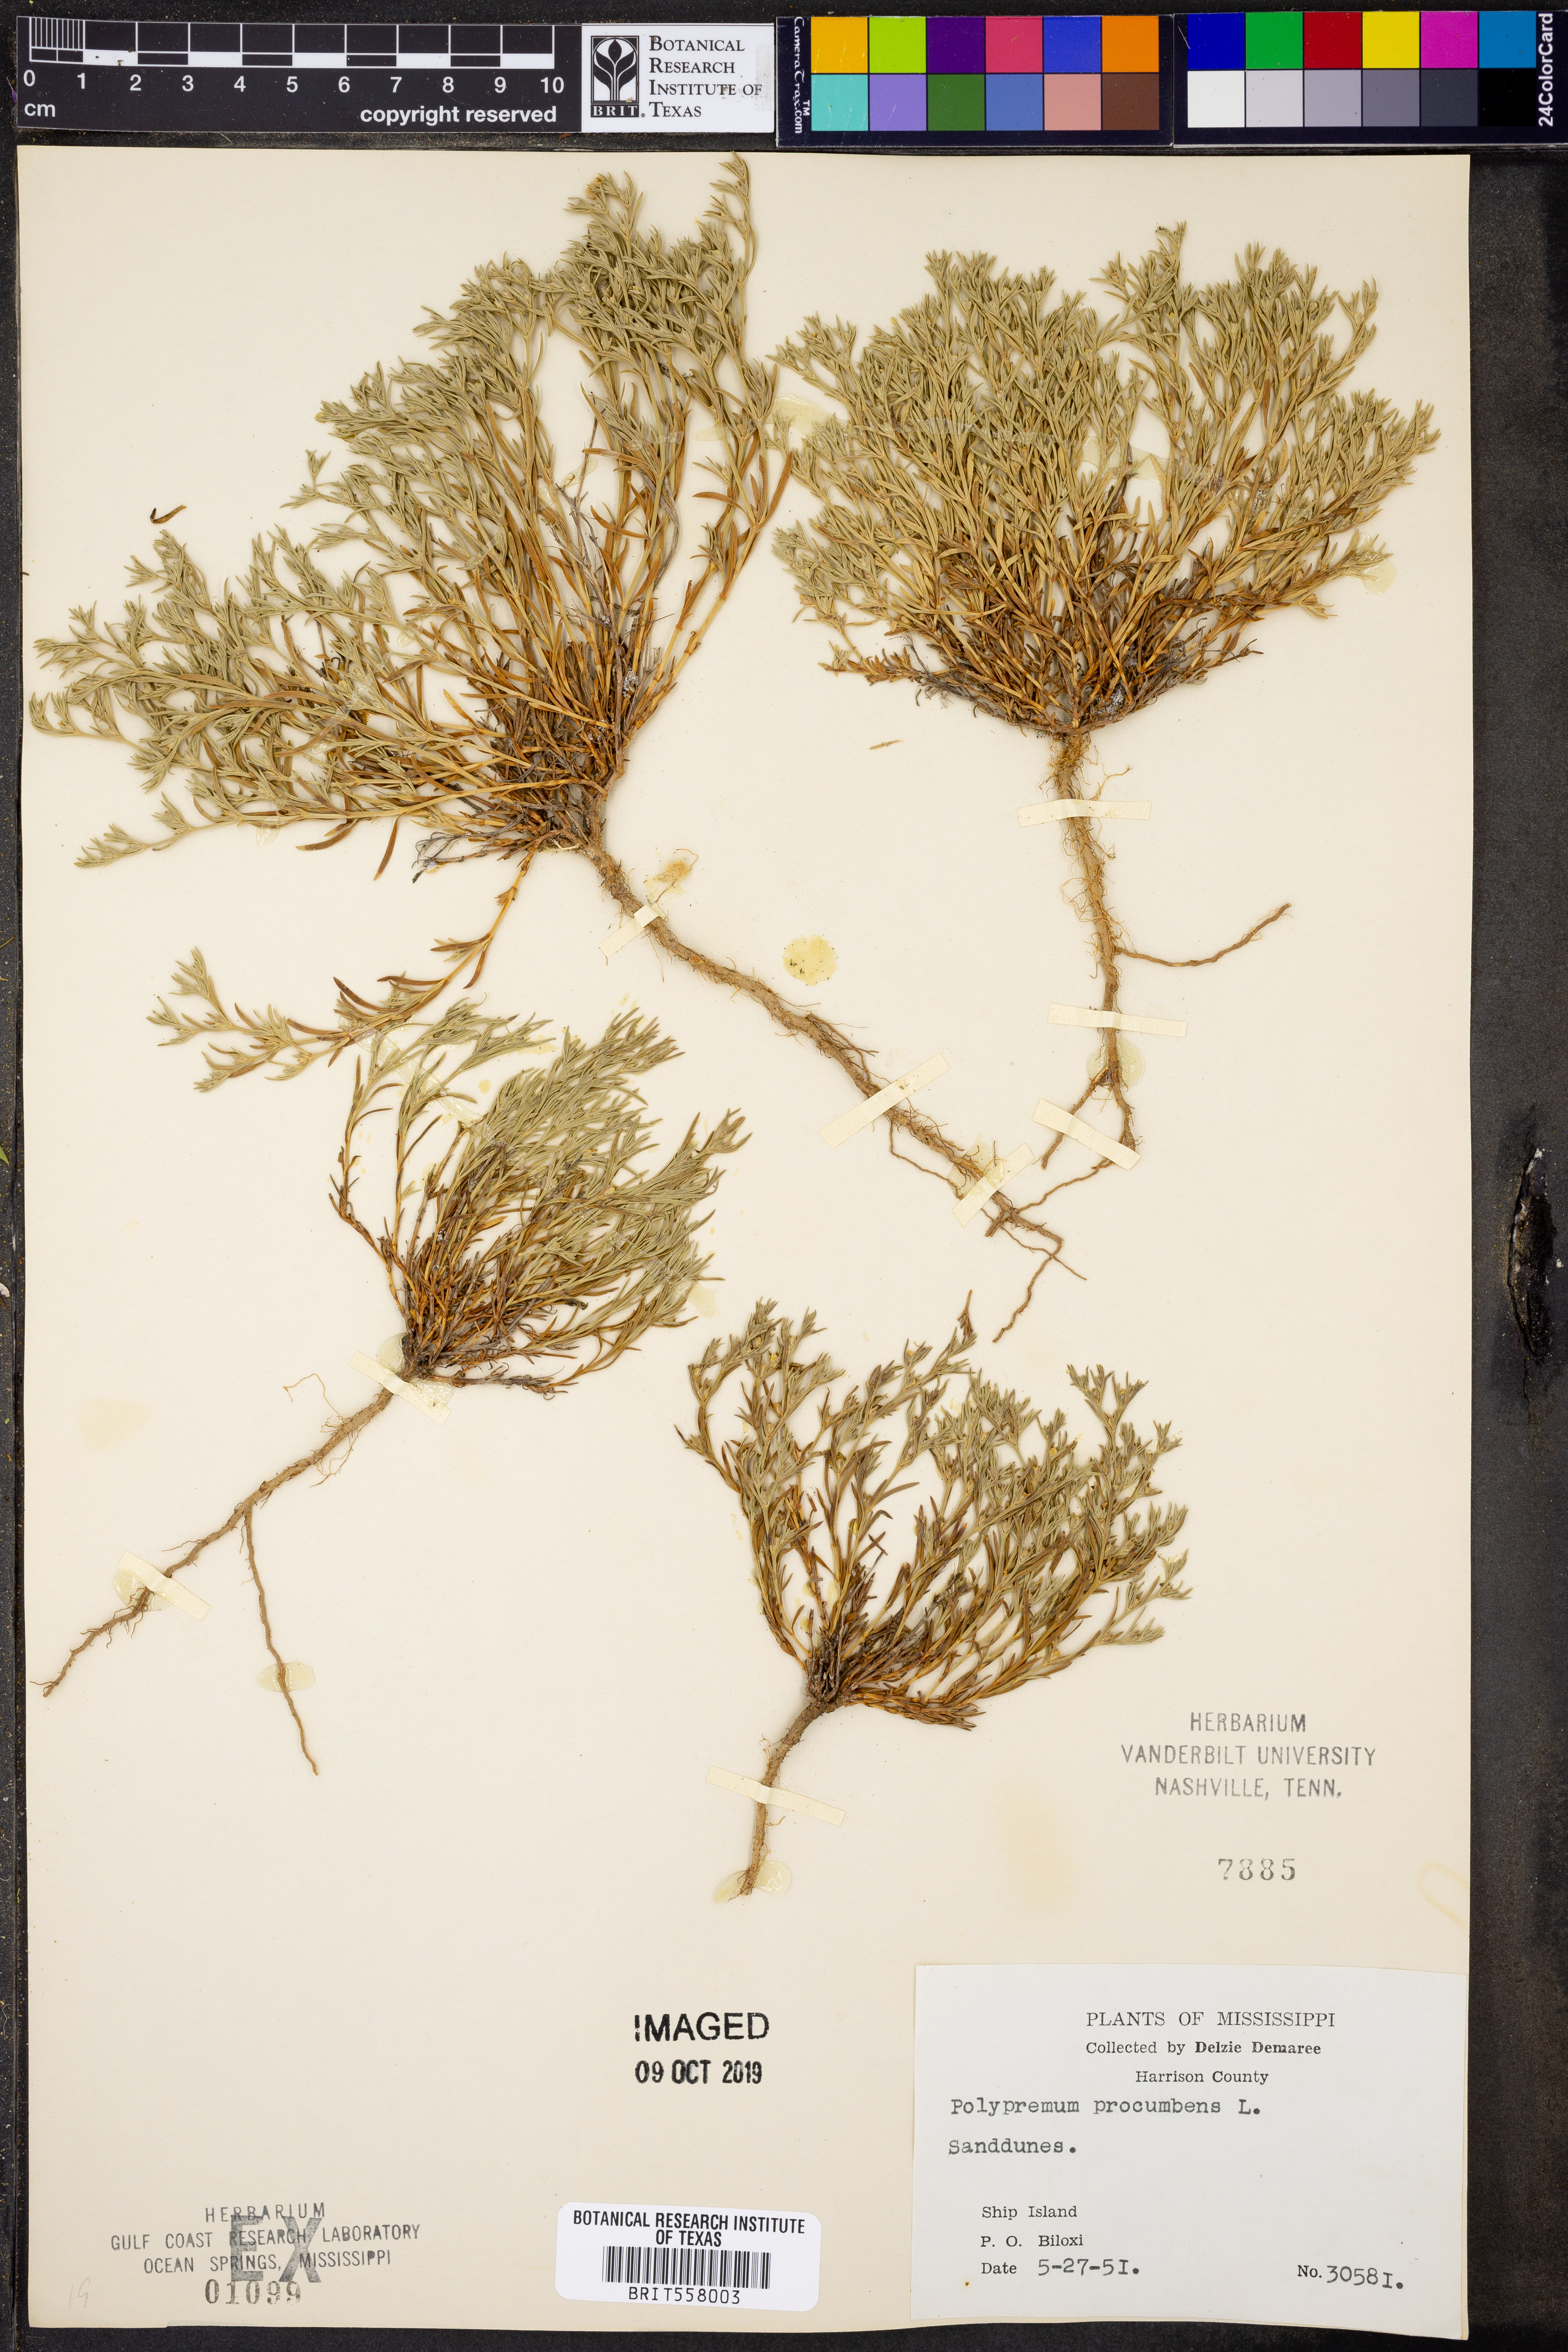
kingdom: Plantae
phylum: Tracheophyta
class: Magnoliopsida
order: Lamiales
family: Tetrachondraceae
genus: Polypremum
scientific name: Polypremum procumbens
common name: Juniper-leaf
